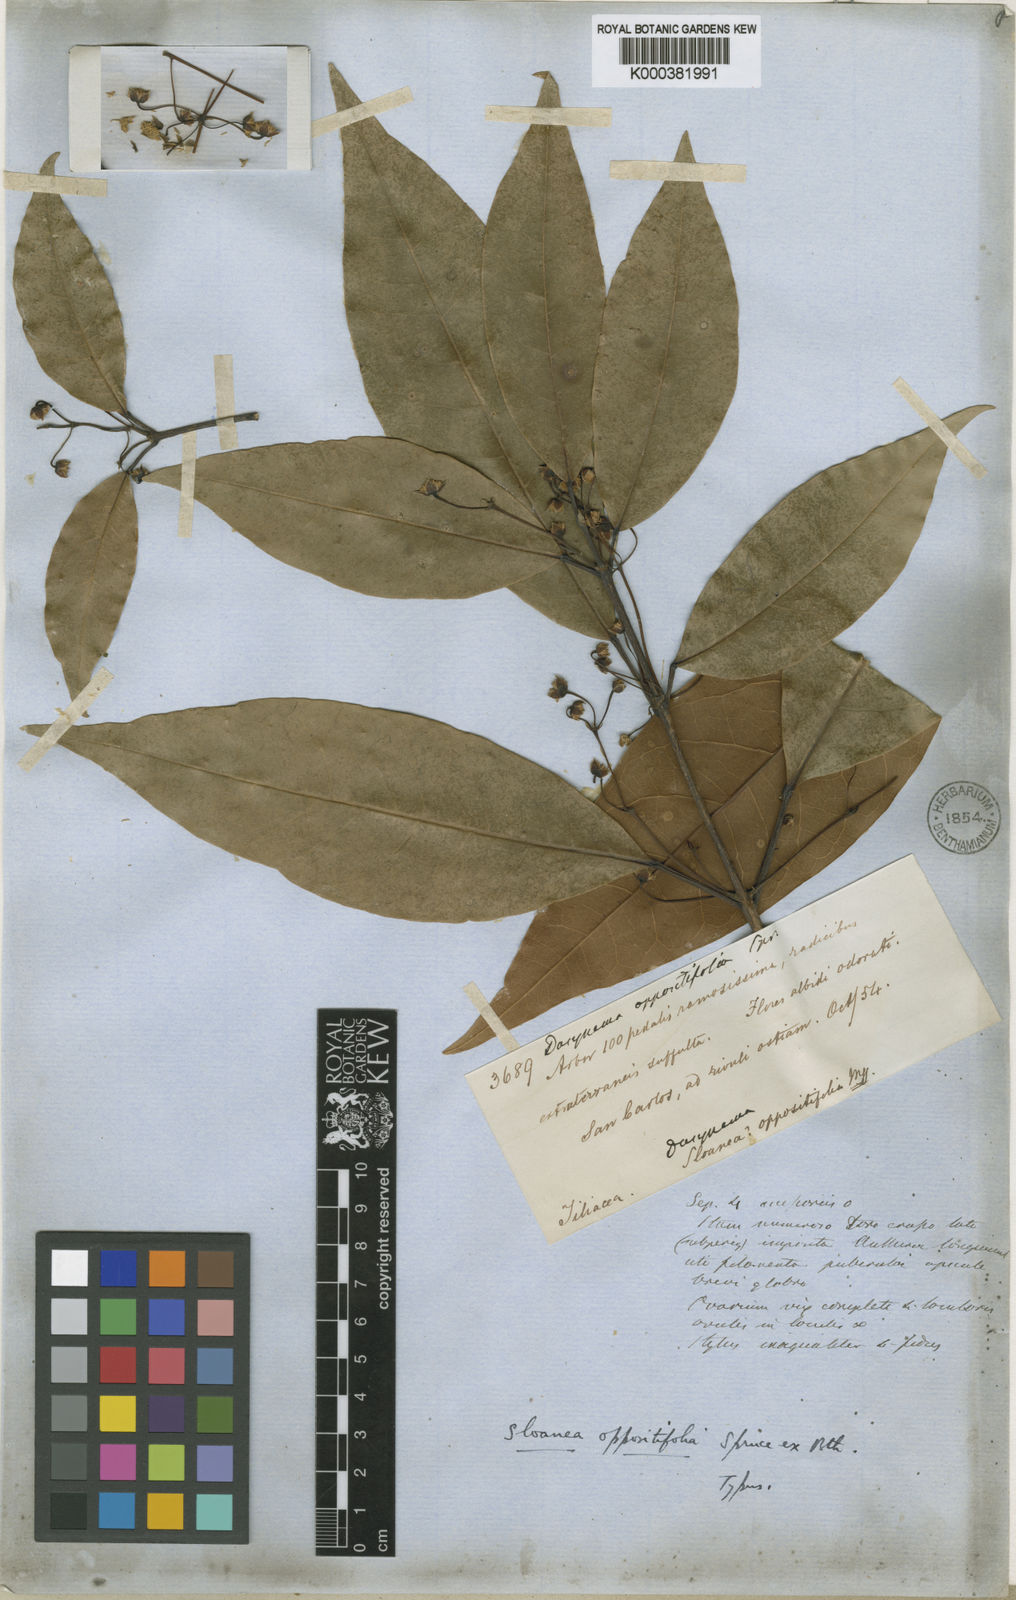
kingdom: Plantae
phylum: Tracheophyta
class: Magnoliopsida
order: Oxalidales
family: Elaeocarpaceae
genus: Sloanea
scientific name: Sloanea laurifolia
